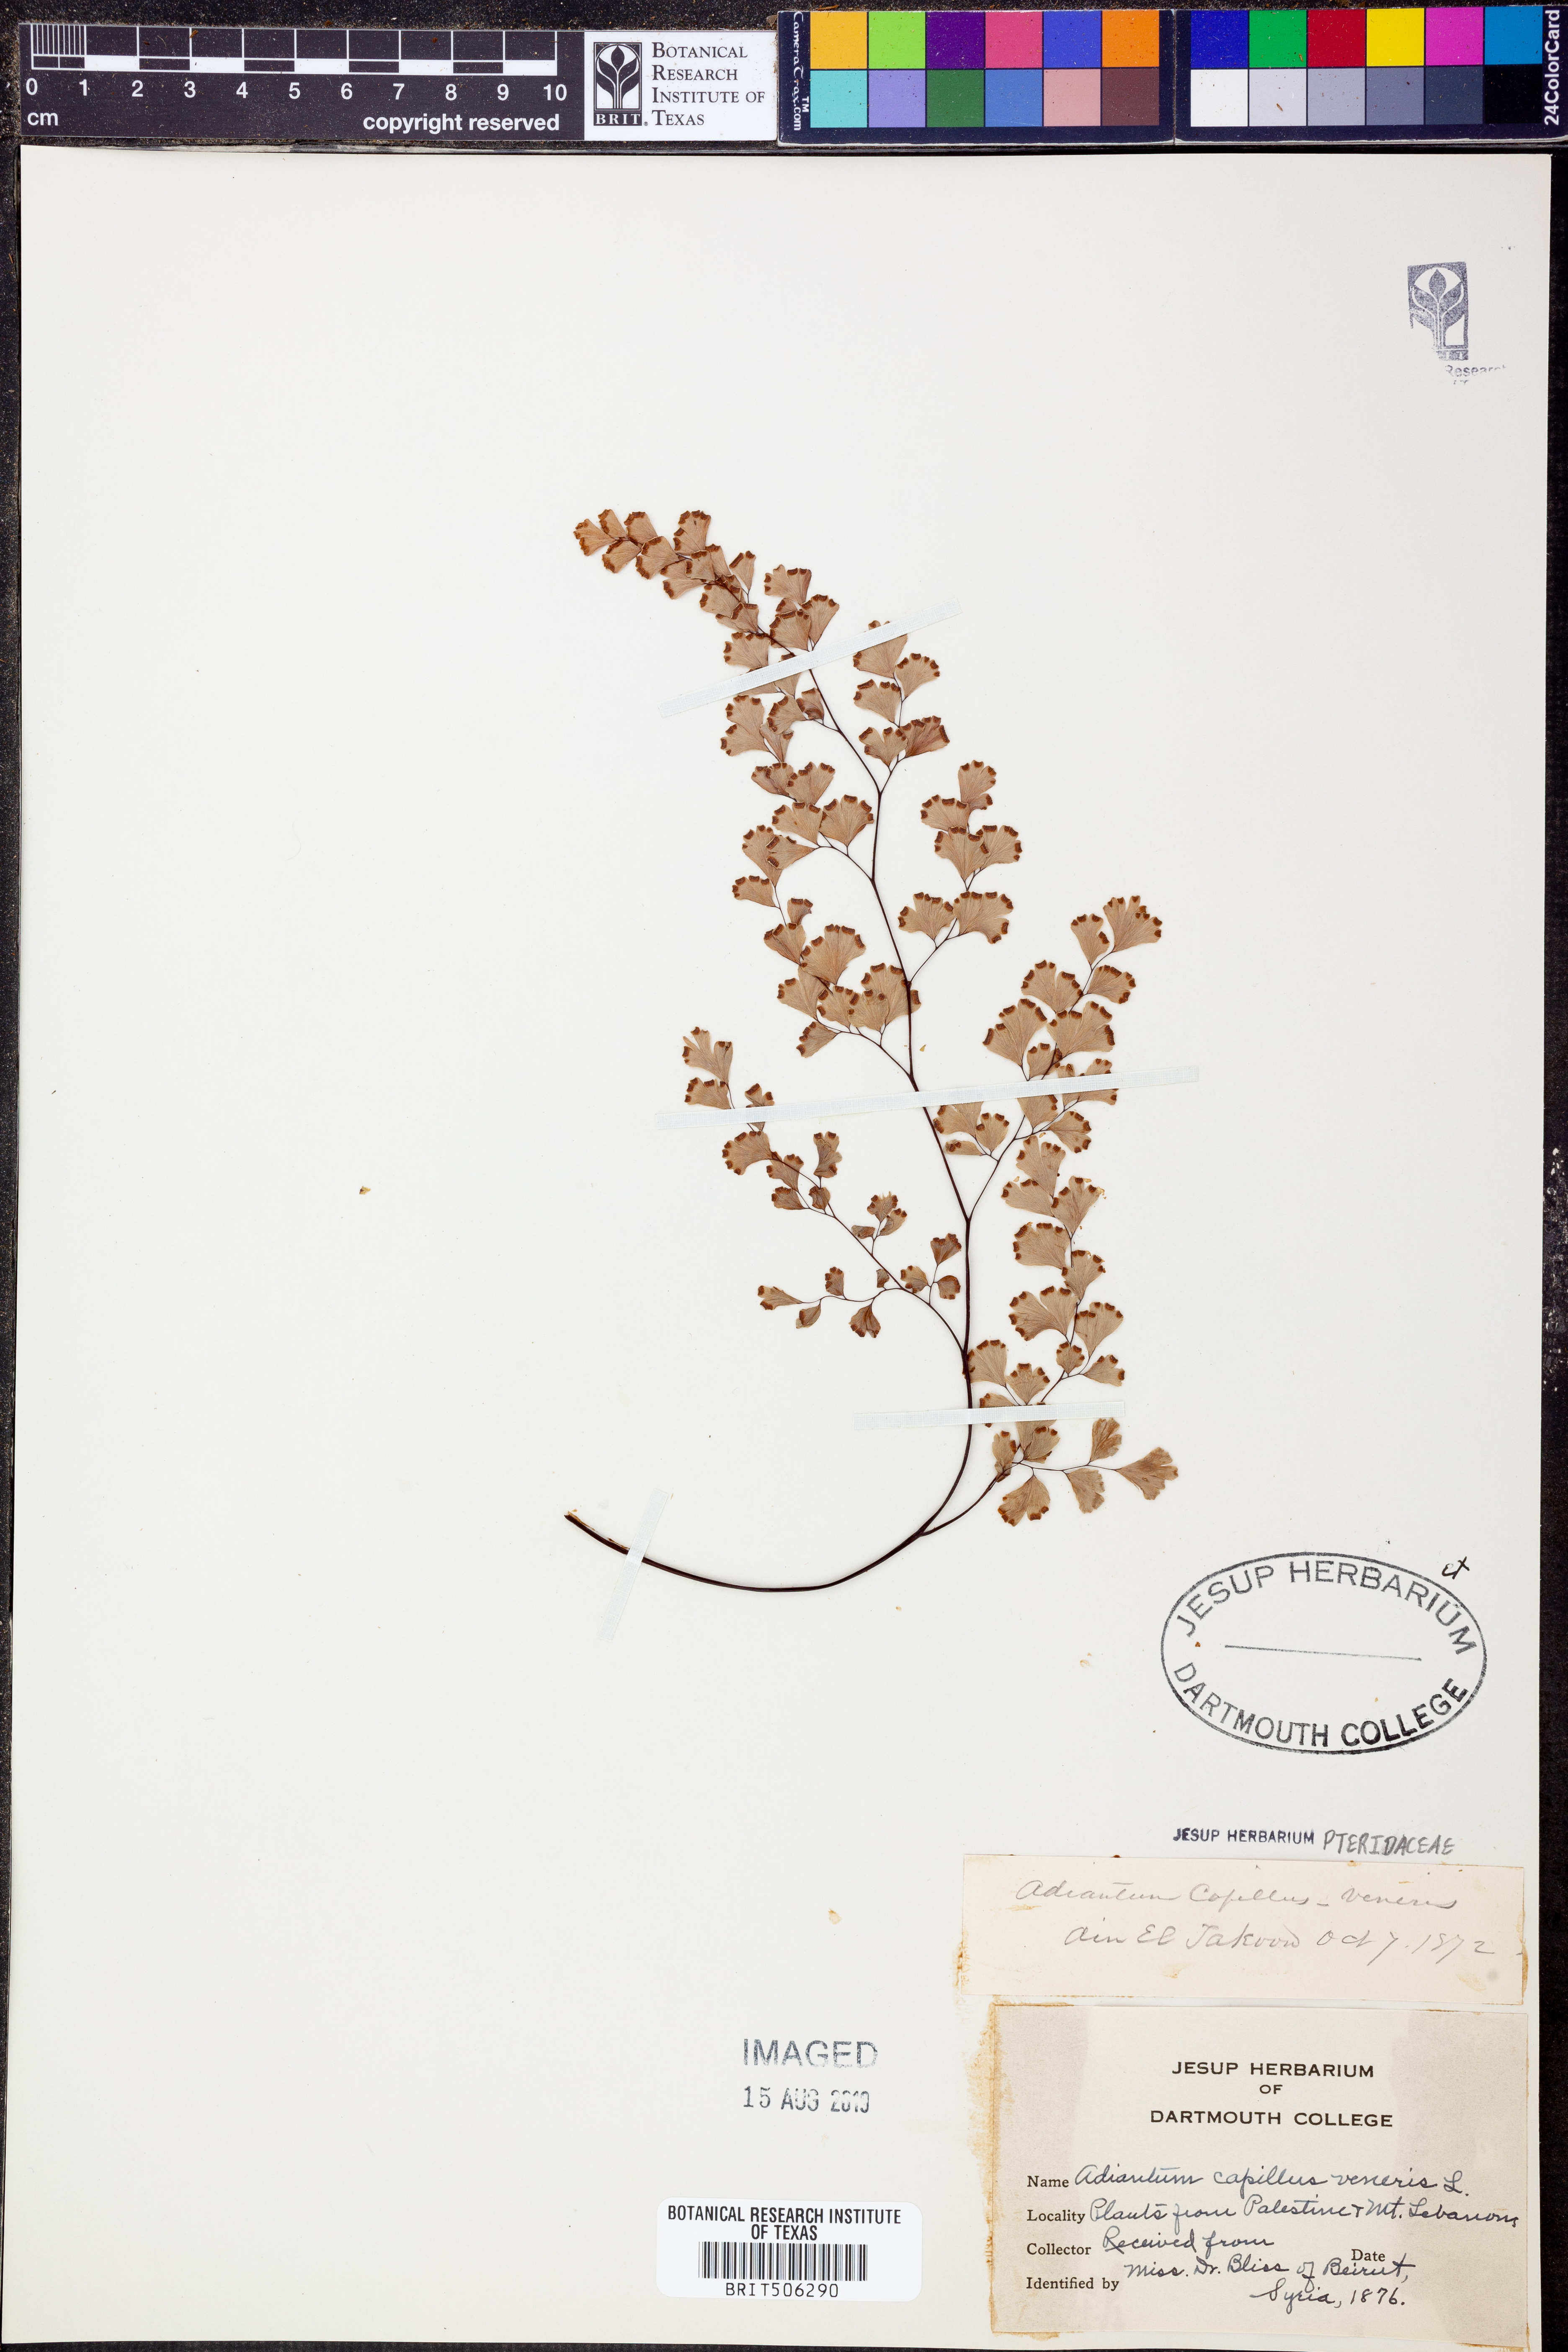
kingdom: Plantae
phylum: Tracheophyta
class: Polypodiopsida
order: Polypodiales
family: Pteridaceae
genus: Adiantum
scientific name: Adiantum capillus-veneris
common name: Maidenhair fern
